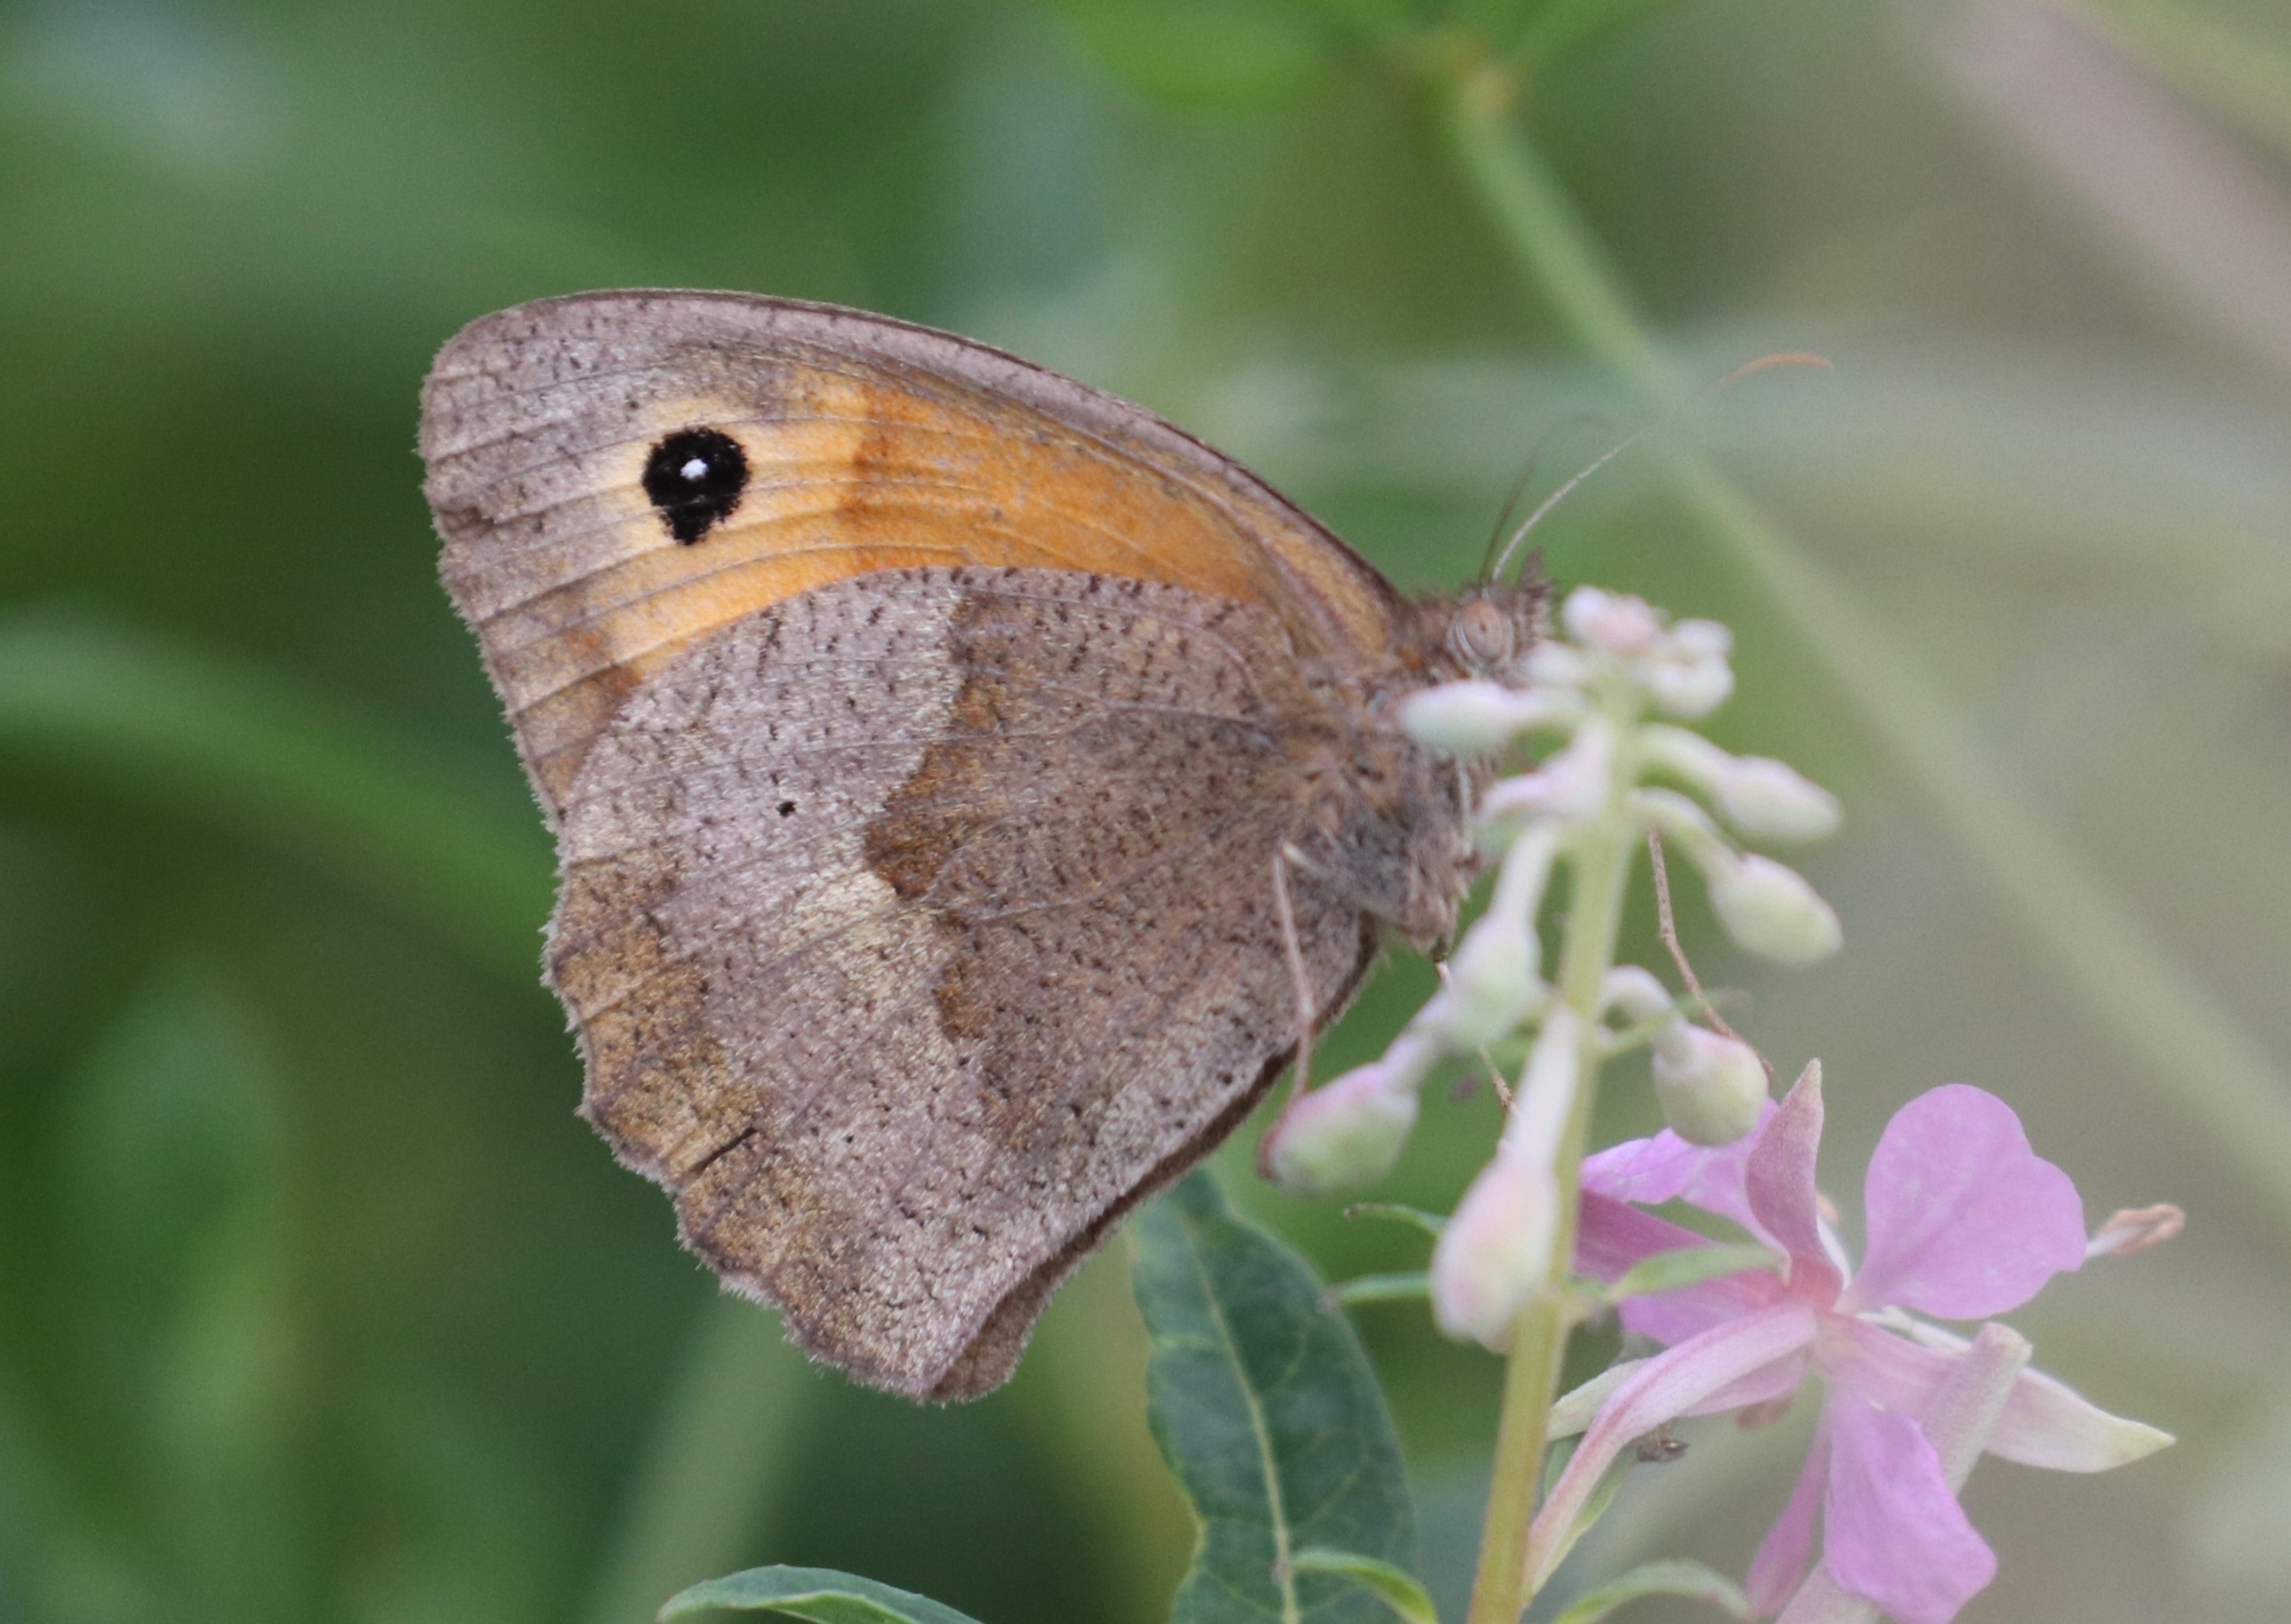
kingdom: Animalia
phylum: Arthropoda
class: Insecta
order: Lepidoptera
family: Nymphalidae
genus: Maniola
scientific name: Maniola jurtina
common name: Græsrandøje
